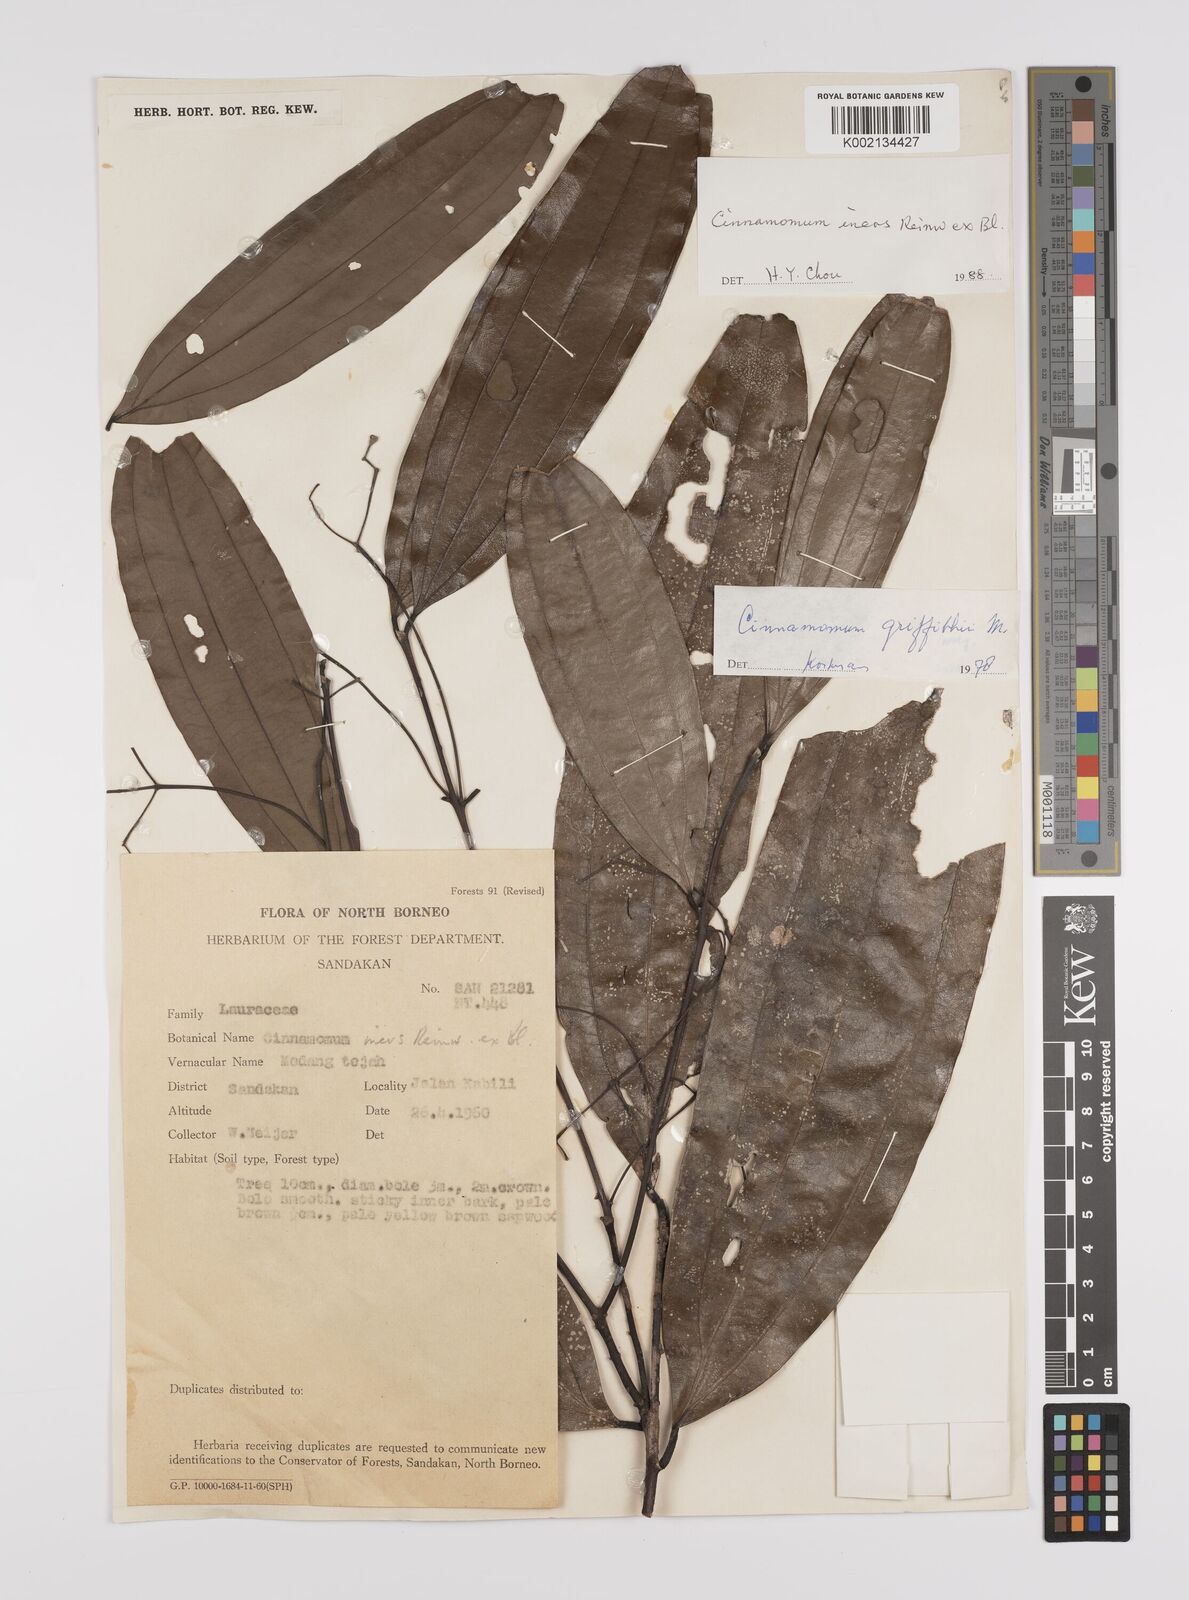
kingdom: Plantae
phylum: Tracheophyta
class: Magnoliopsida
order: Laurales
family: Lauraceae
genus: Cinnamomum
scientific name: Cinnamomum iners
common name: Wild cinnamon
